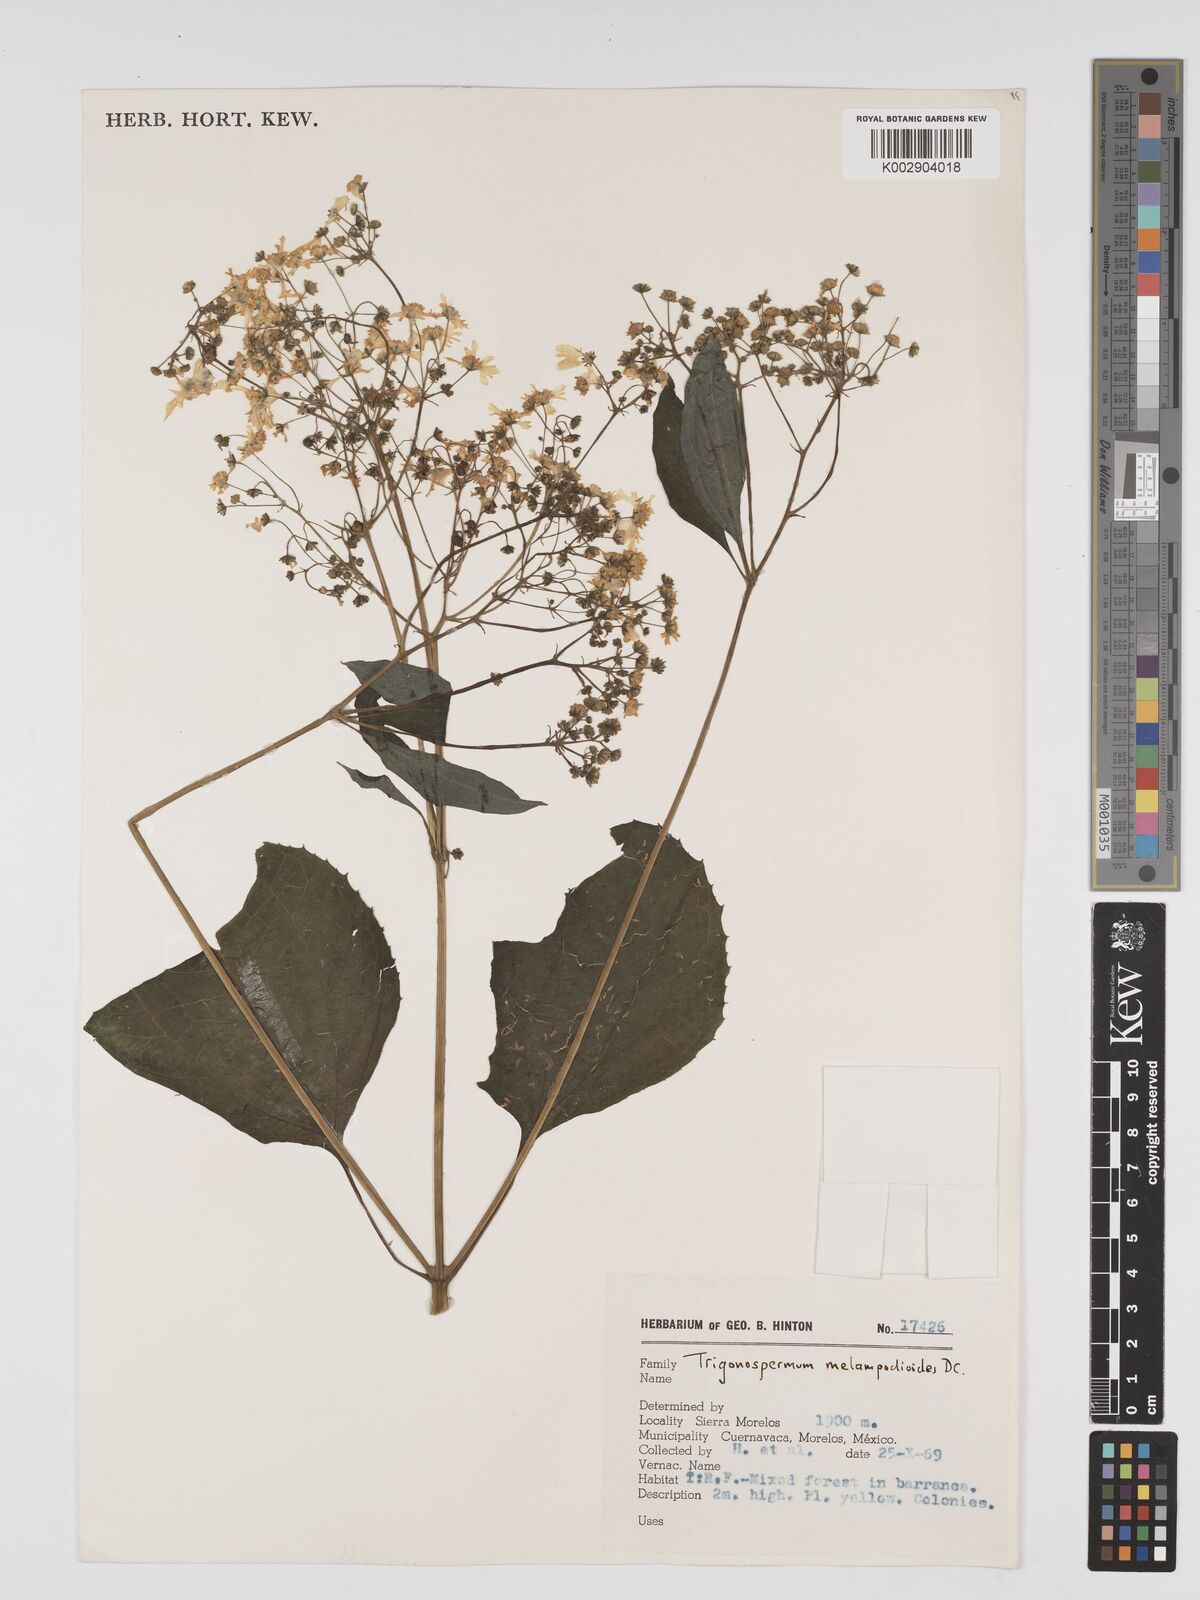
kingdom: Plantae
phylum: Tracheophyta
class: Magnoliopsida
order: Asterales
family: Asteraceae
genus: Trigonospermum
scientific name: Trigonospermum melampodioides
